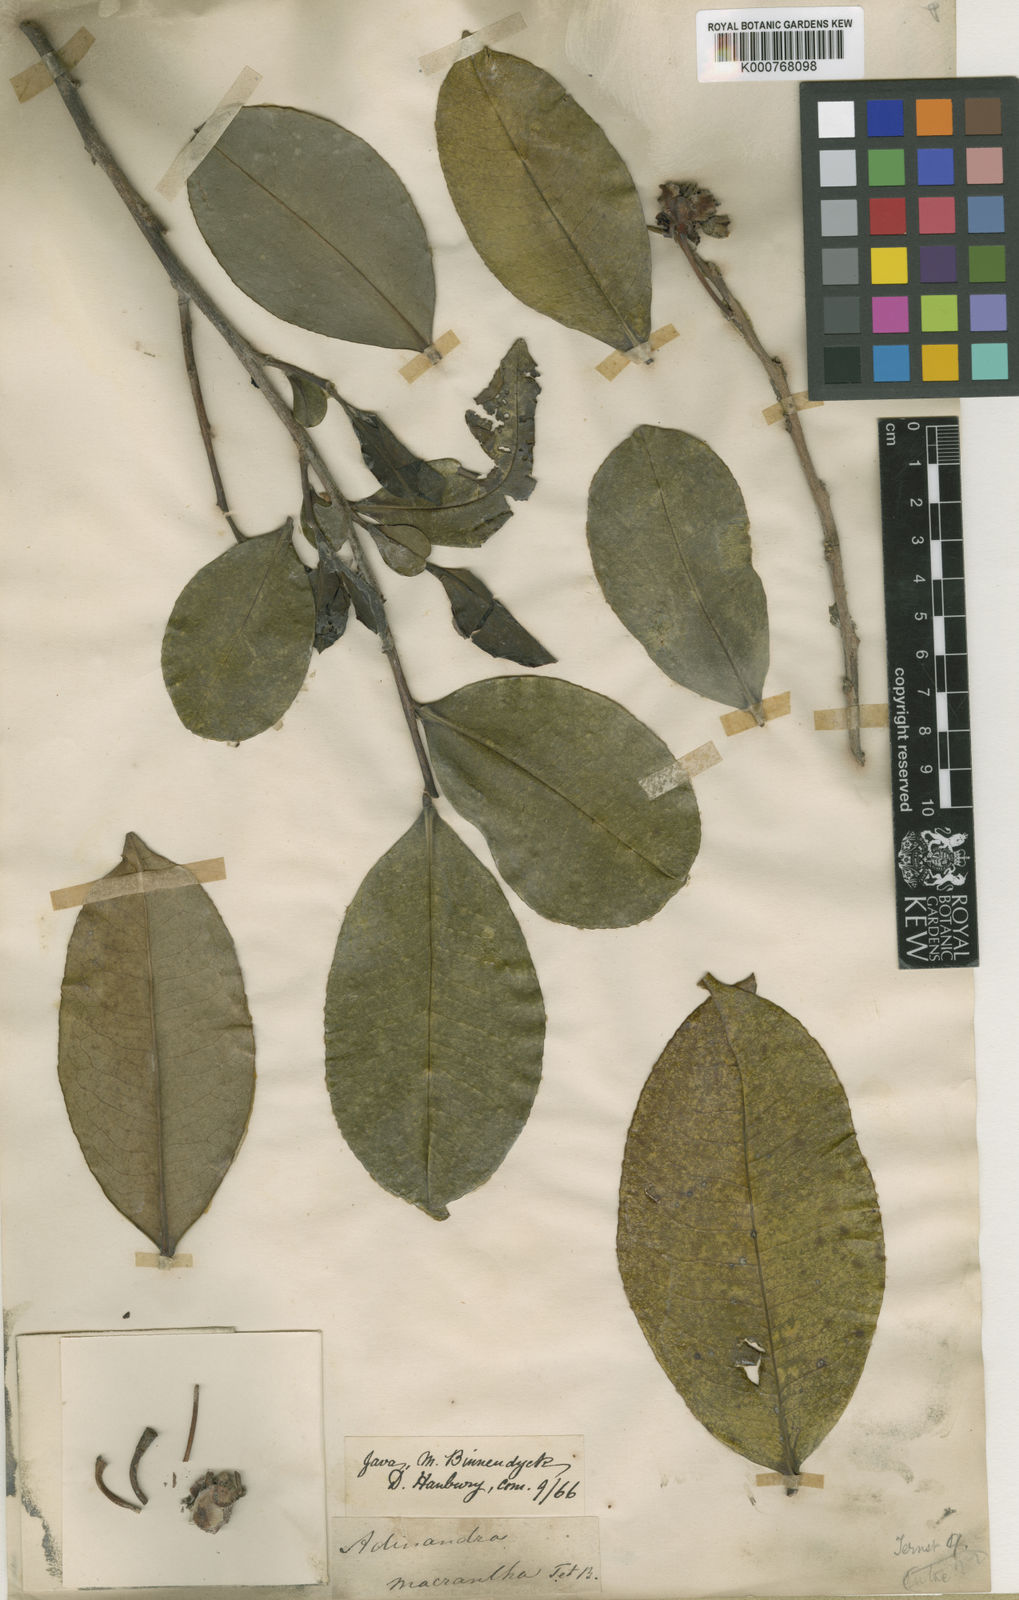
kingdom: Plantae
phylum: Tracheophyta
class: Magnoliopsida
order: Ericales
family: Pentaphylacaceae
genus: Adinandra
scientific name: Adinandra sarosanthera
